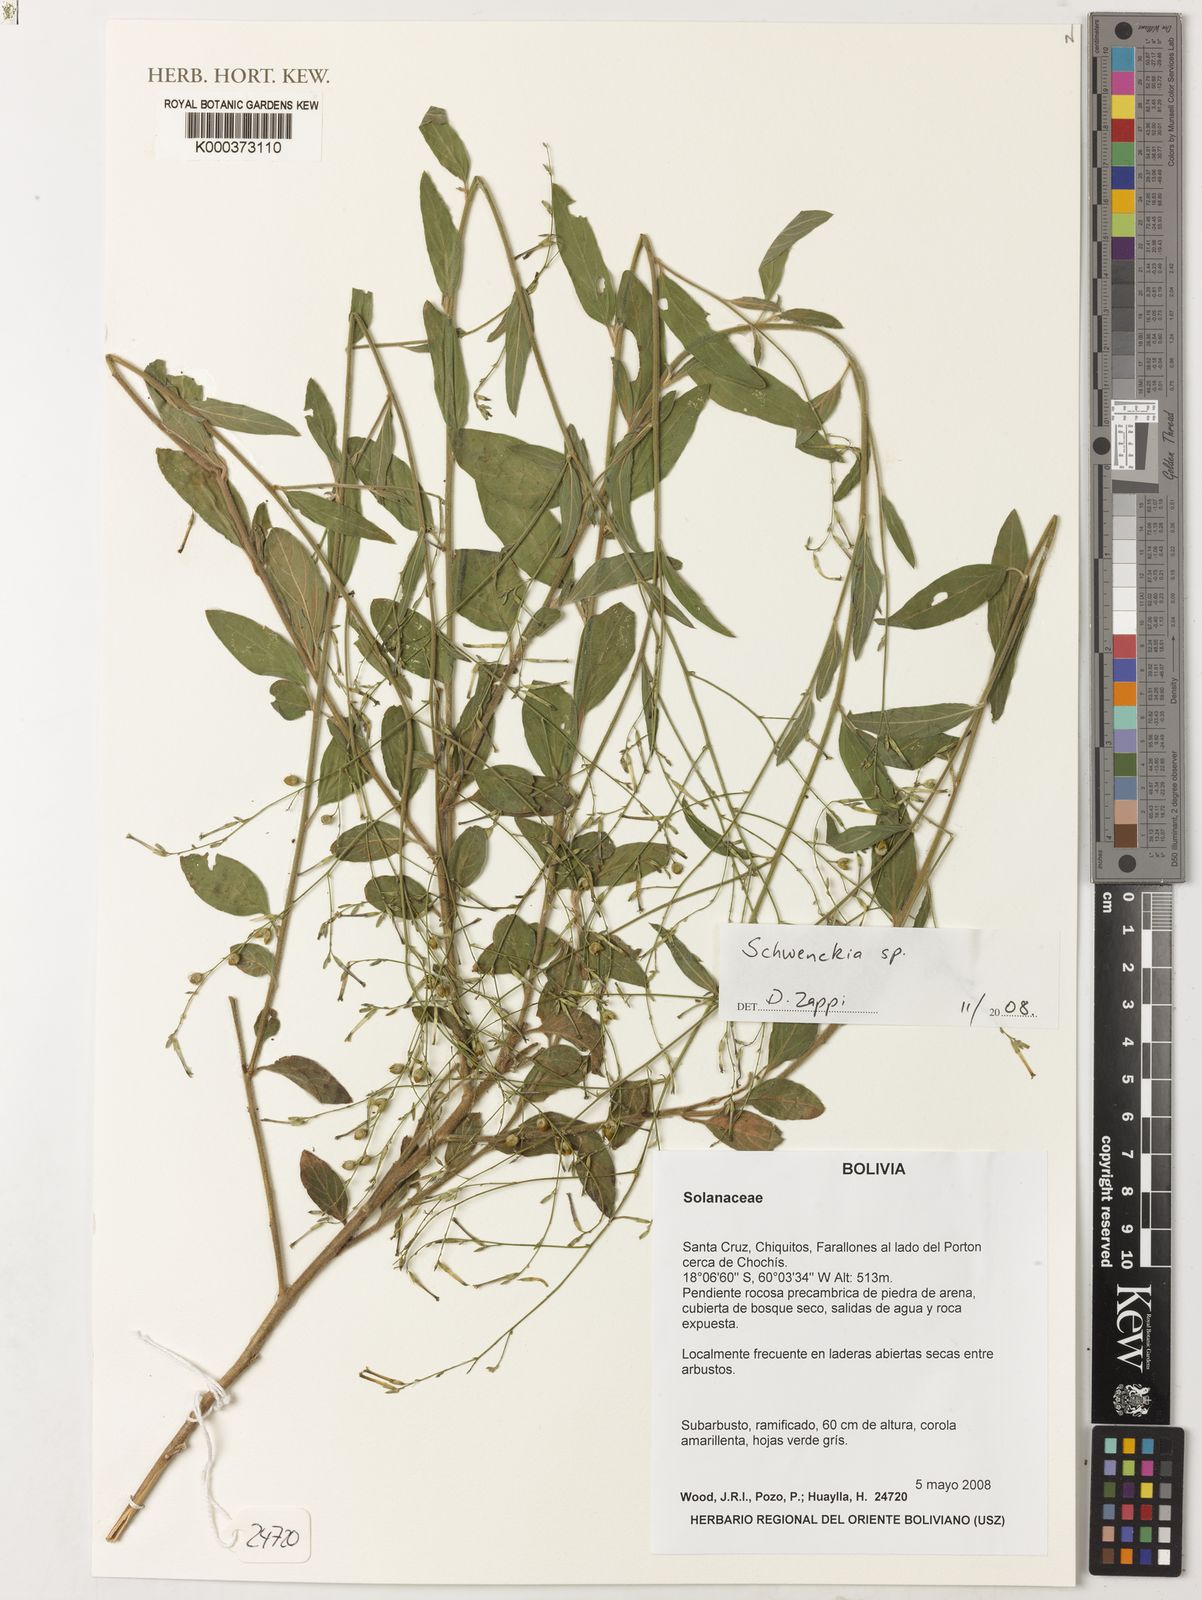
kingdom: Plantae
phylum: Tracheophyta
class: Magnoliopsida
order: Solanales
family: Solanaceae
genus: Schwenckia
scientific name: Schwenckia
